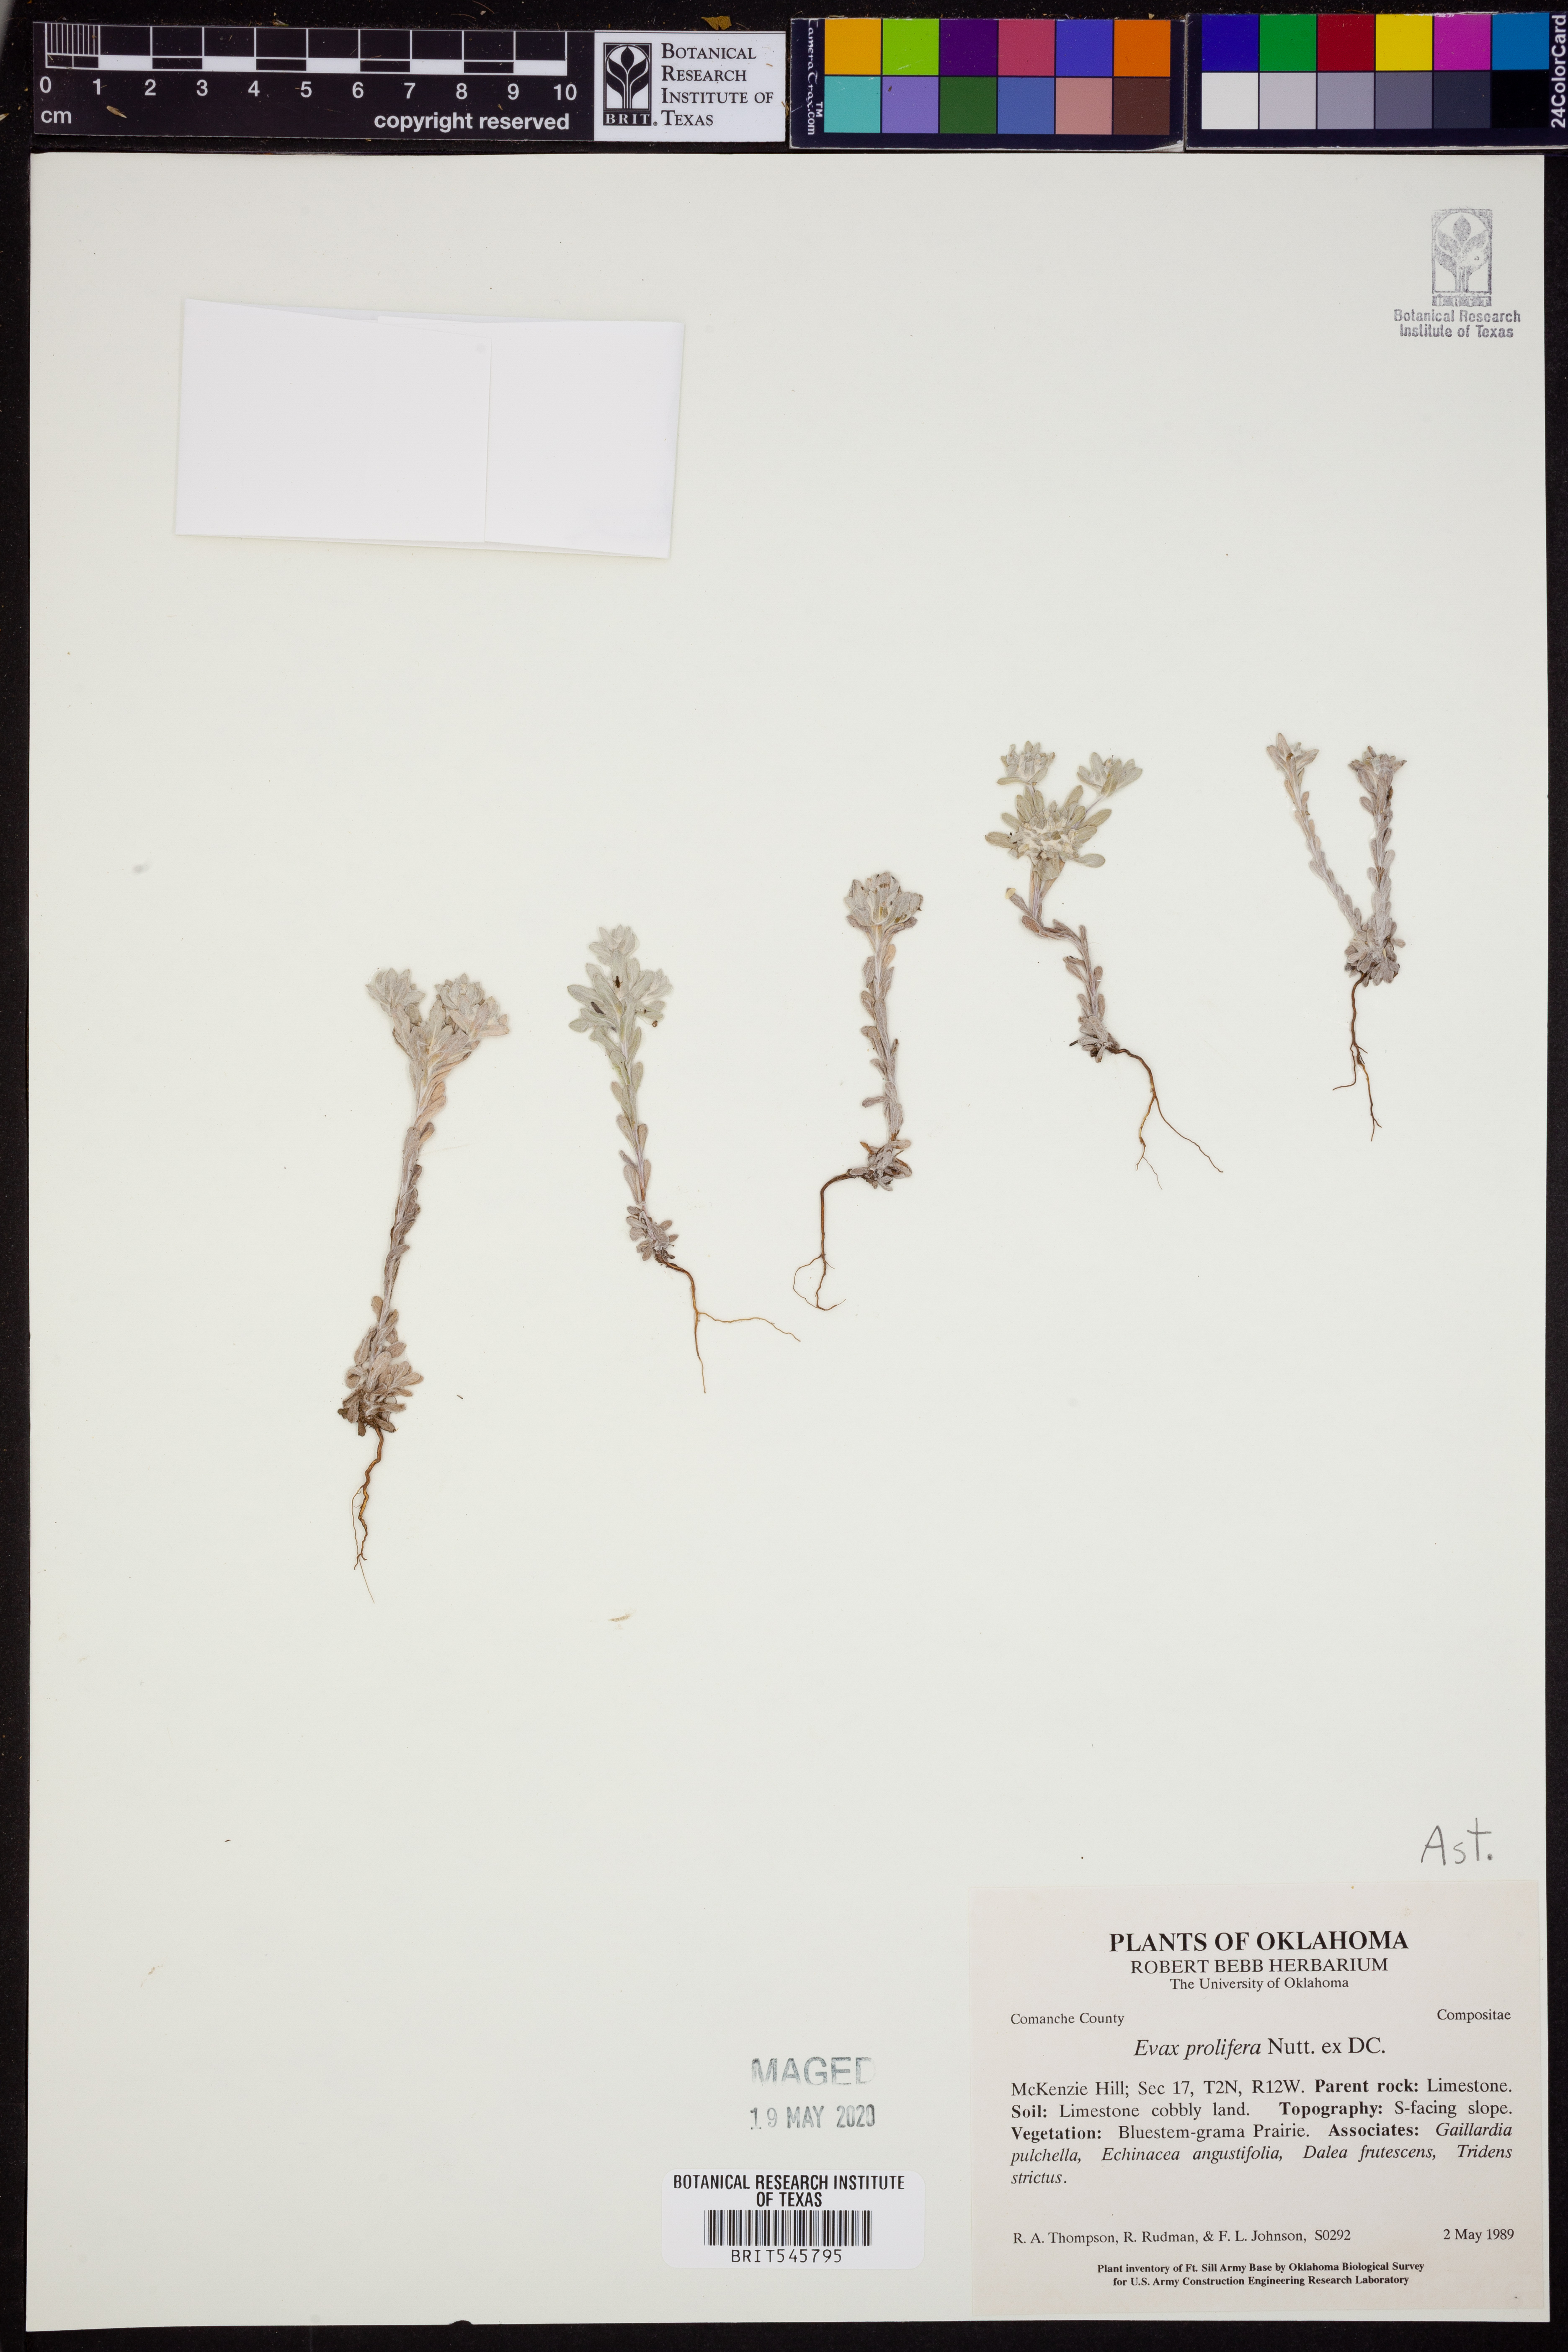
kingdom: Plantae
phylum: Tracheophyta
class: Magnoliopsida
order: Asterales
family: Asteraceae
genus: Diaperia
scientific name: Diaperia prolifera
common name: Big-head rabbit-tobacco
